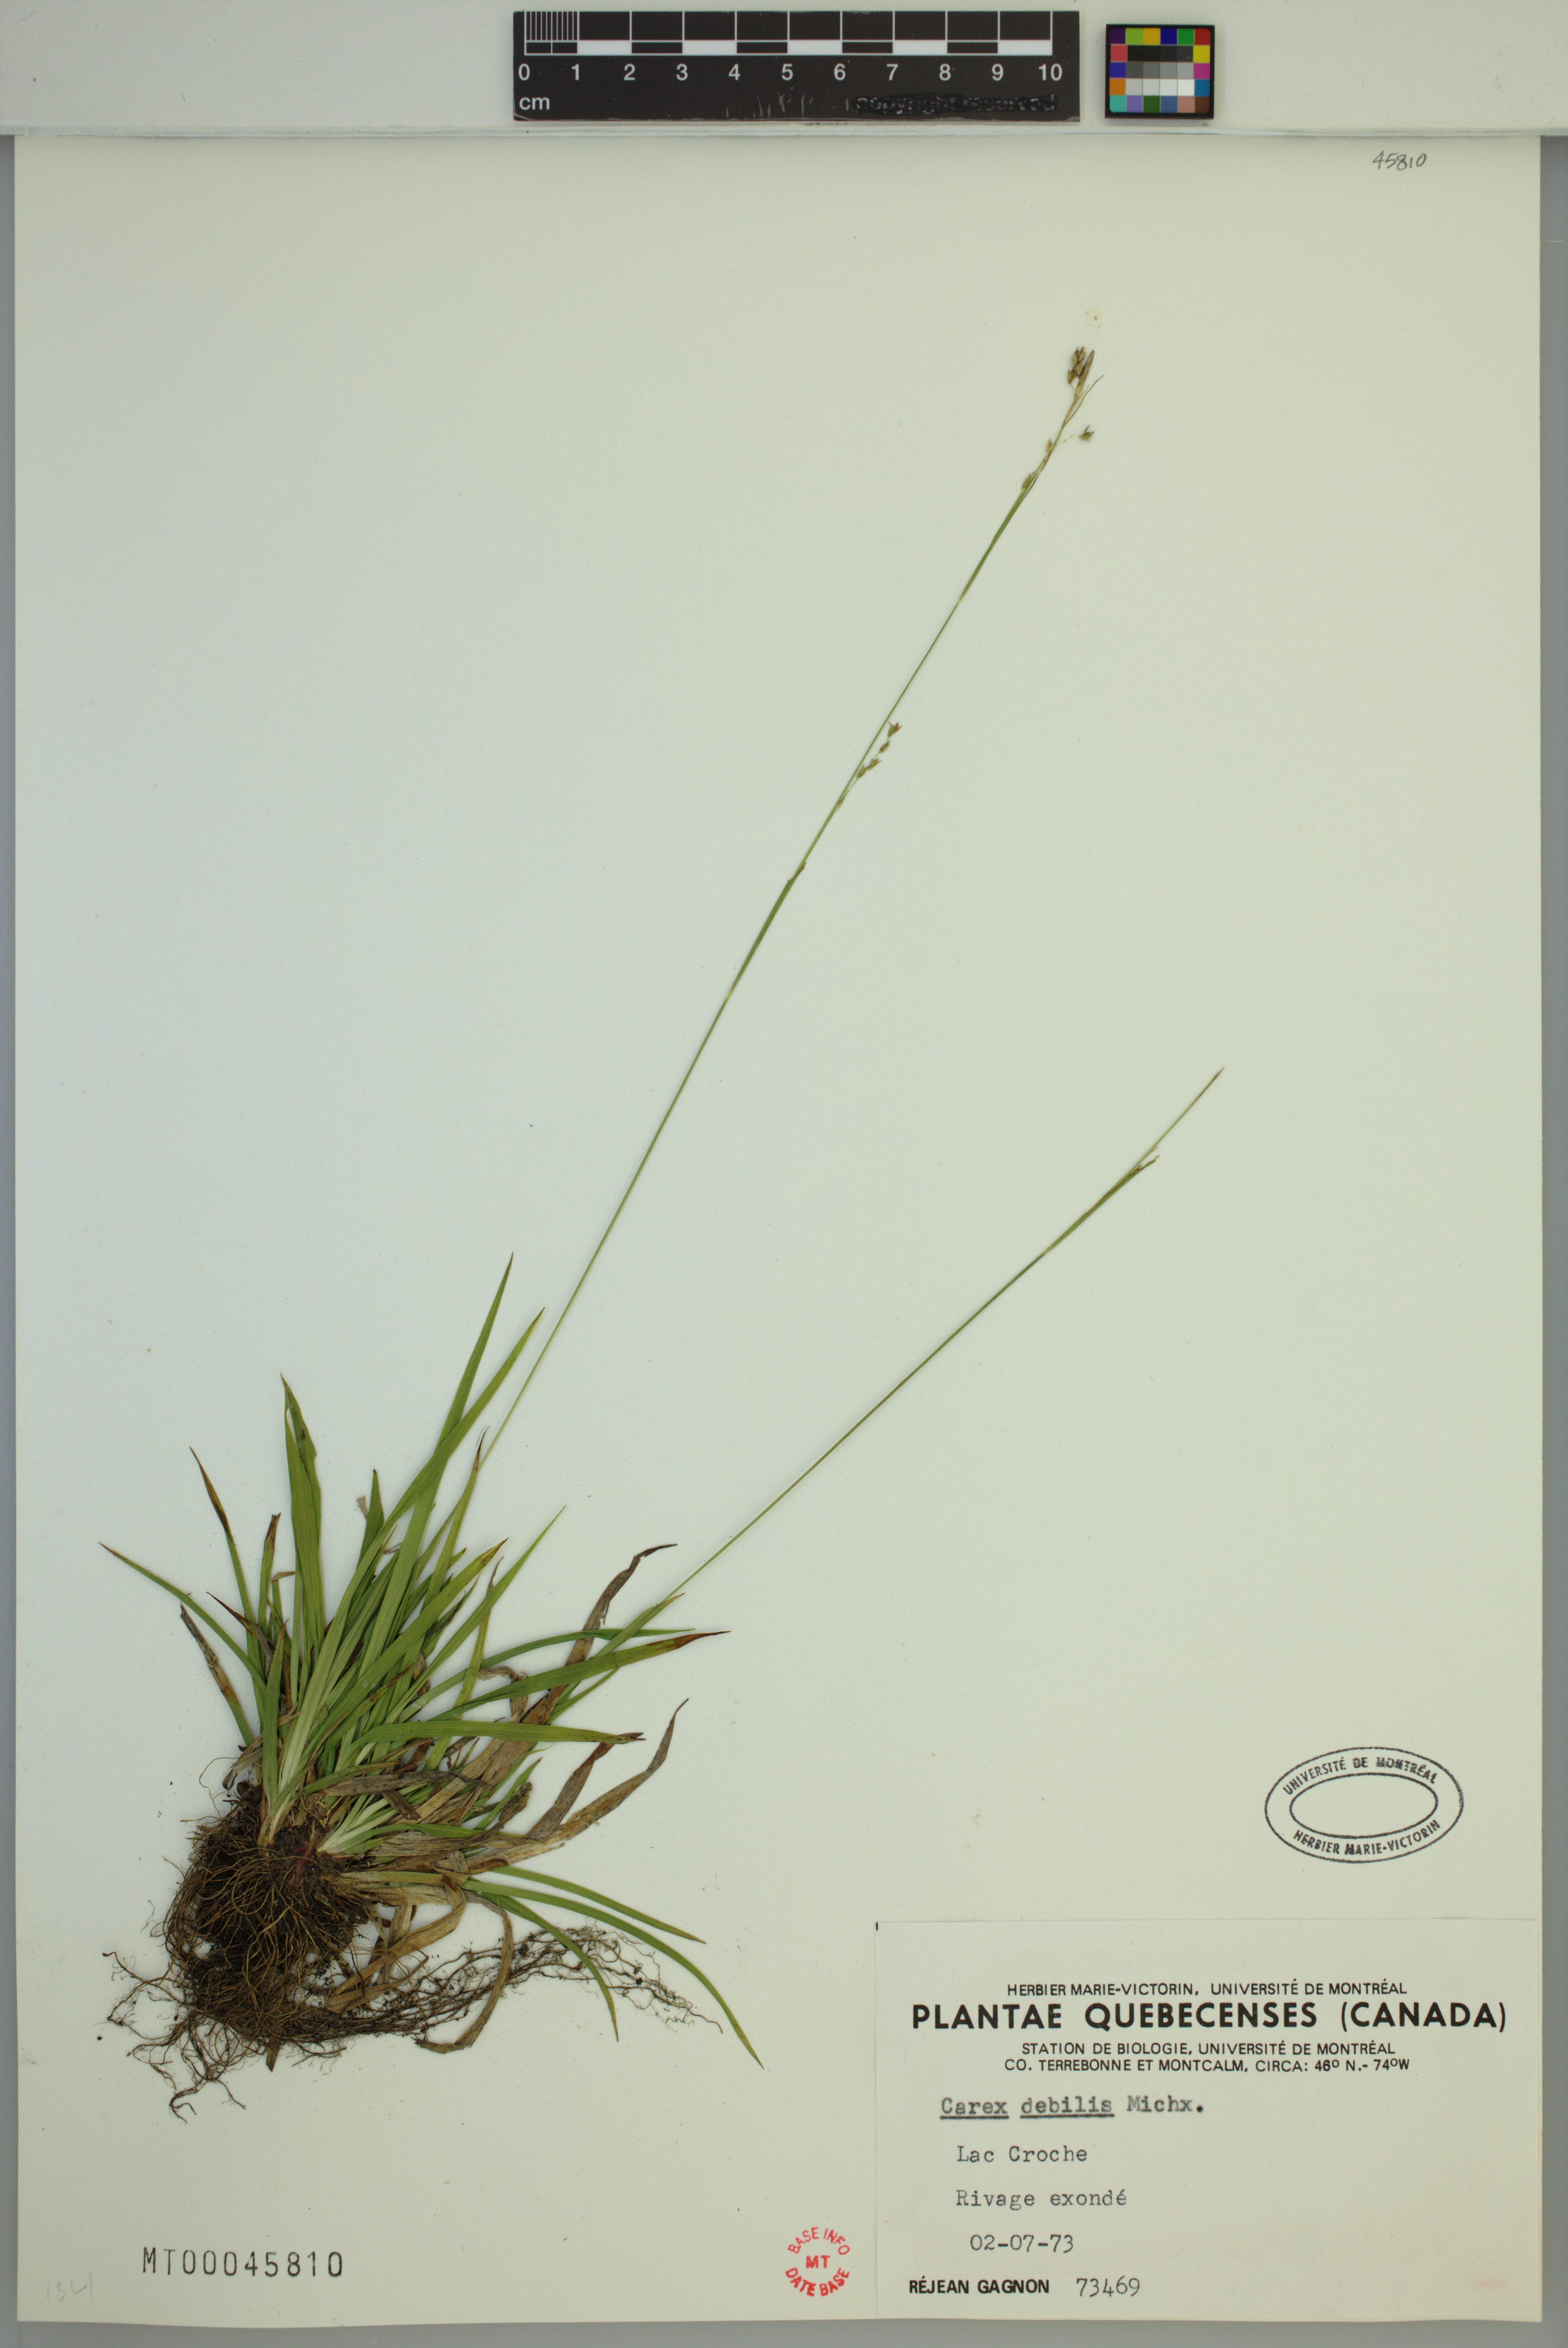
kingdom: Plantae
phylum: Tracheophyta
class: Liliopsida
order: Poales
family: Cyperaceae
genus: Carex
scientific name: Carex debilis
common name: White-edge sedge
